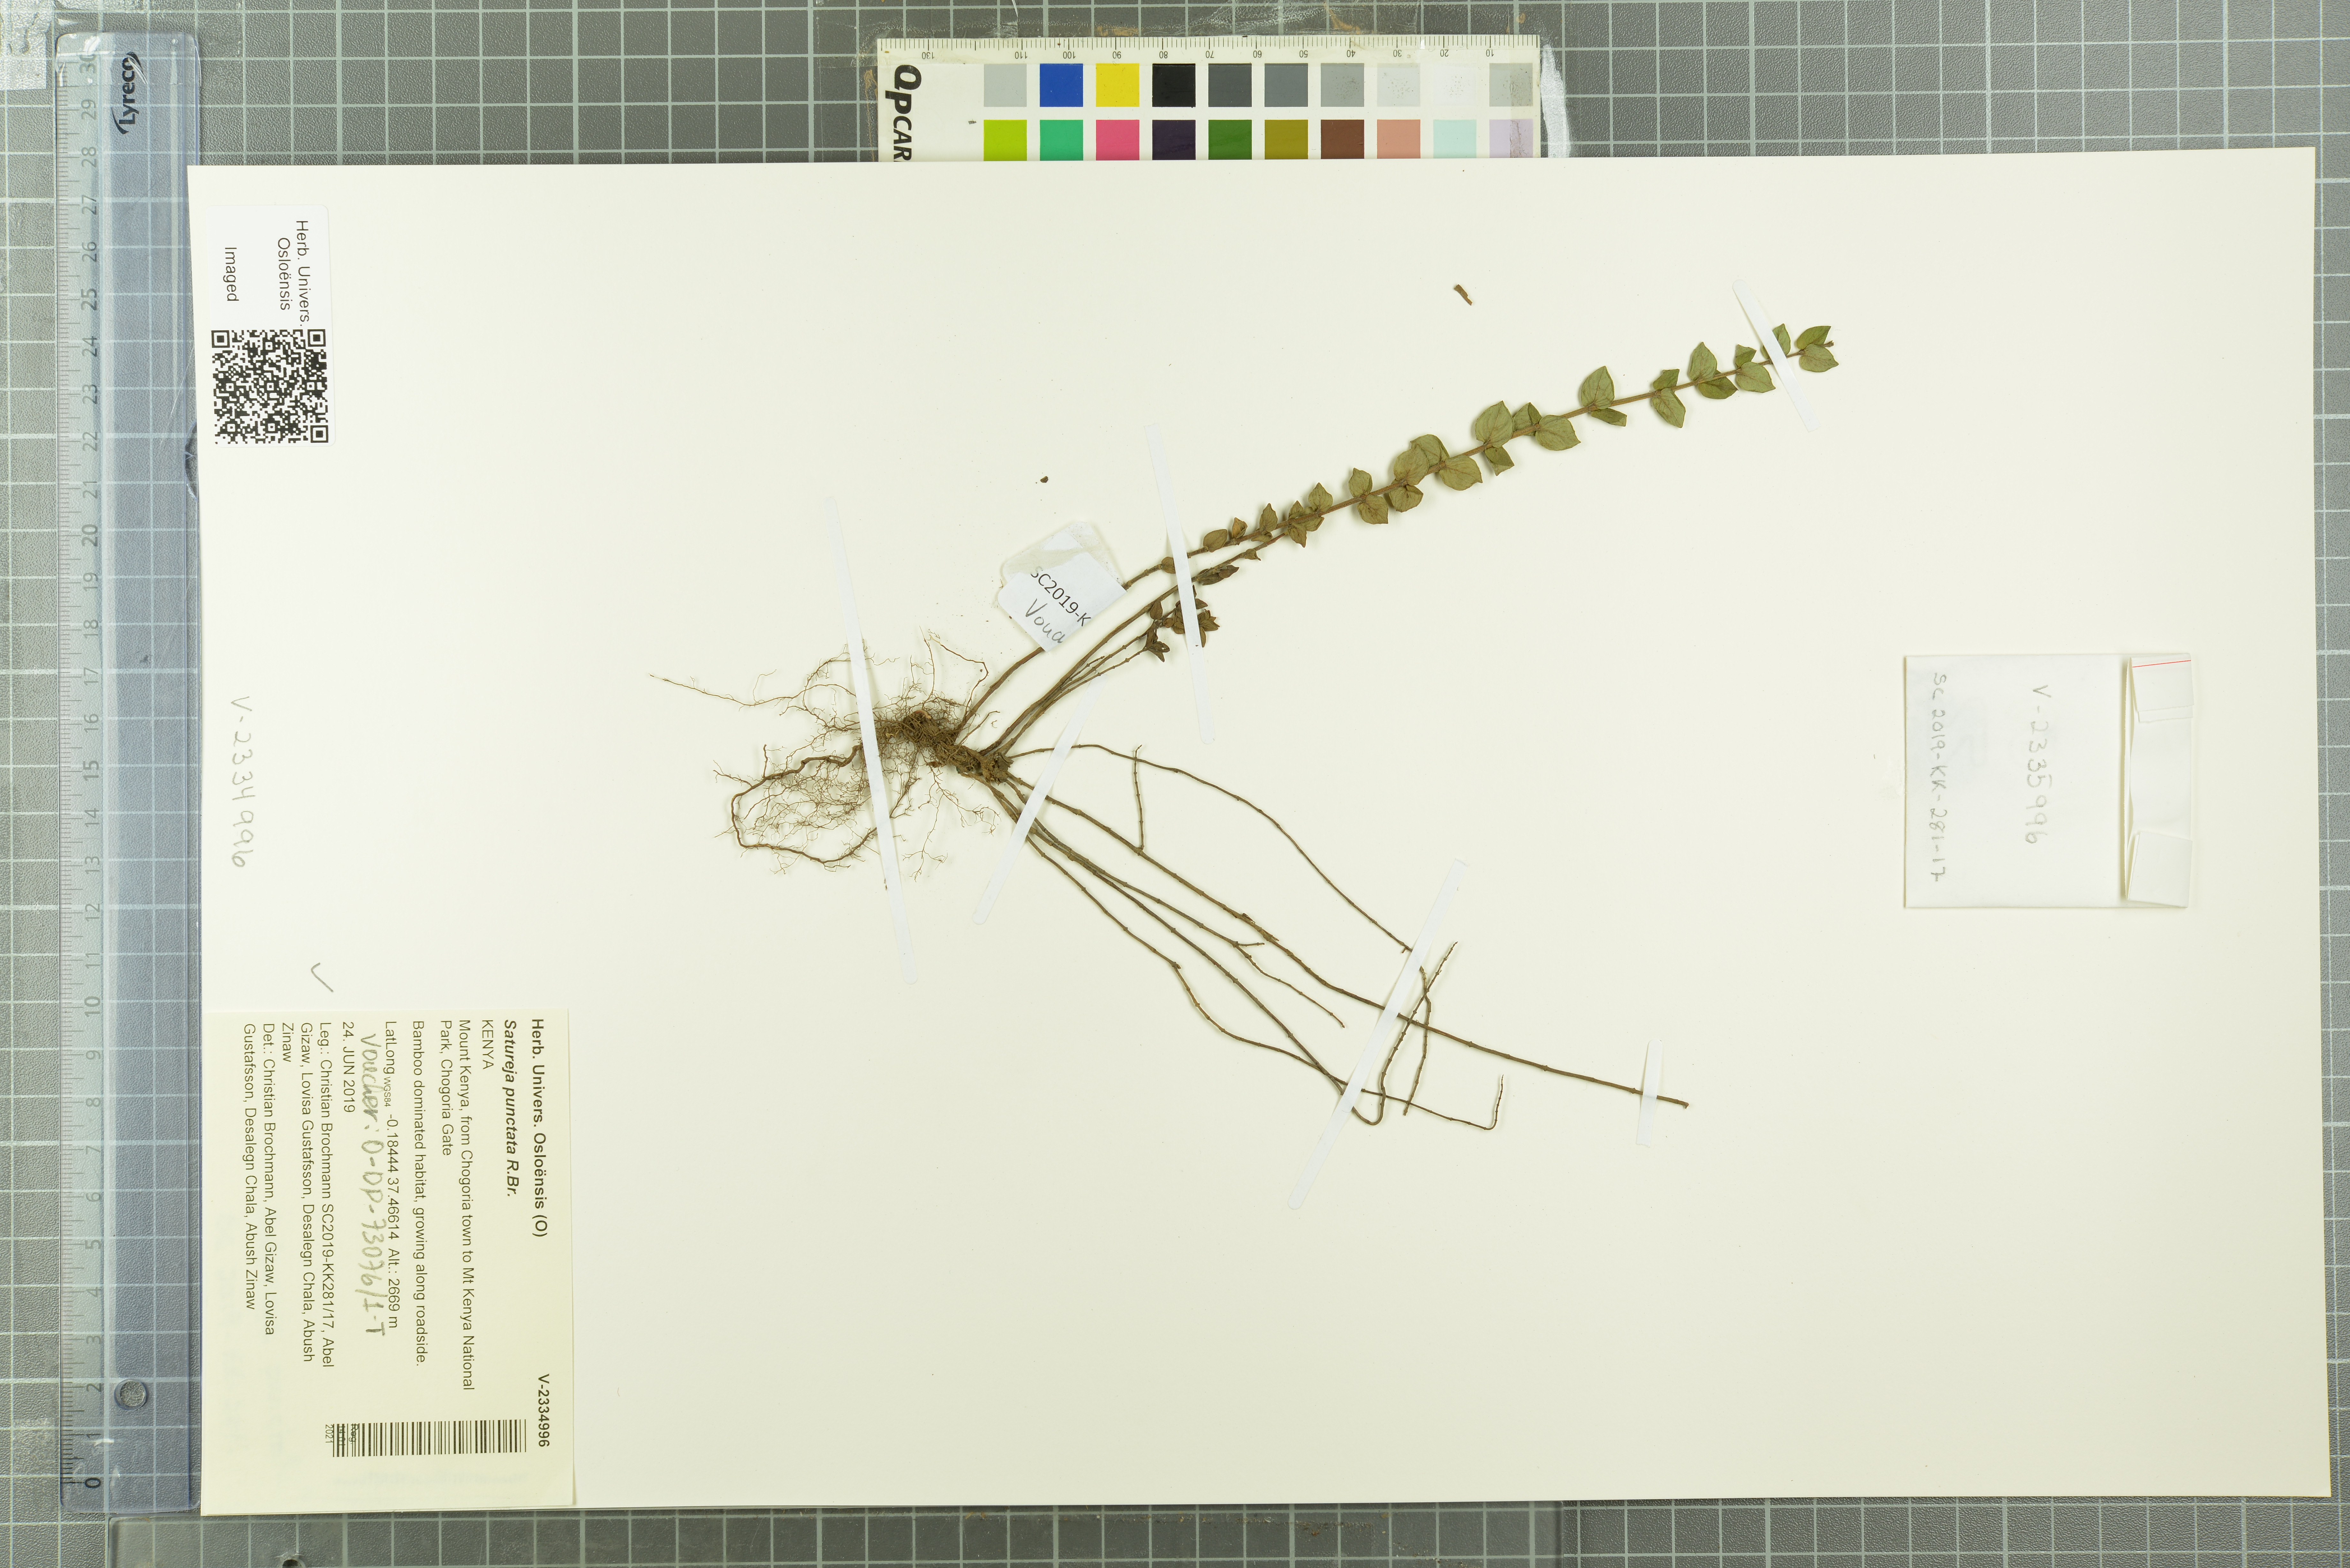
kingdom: Plantae
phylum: Tracheophyta
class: Magnoliopsida
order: Lamiales
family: Lamiaceae
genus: Micromeria
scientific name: Micromeria imbricata
